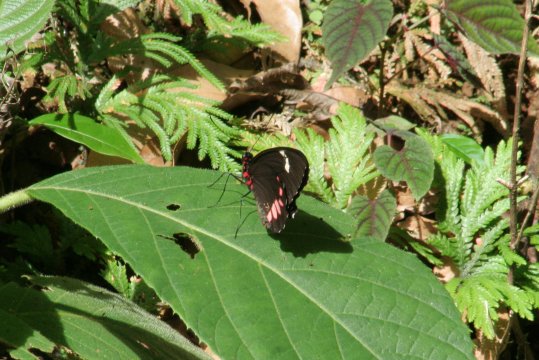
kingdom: Animalia
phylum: Arthropoda
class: Insecta
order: Lepidoptera
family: Papilionidae
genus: Parides
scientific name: Parides sesostris
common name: Emerald-patched Cattleheart
